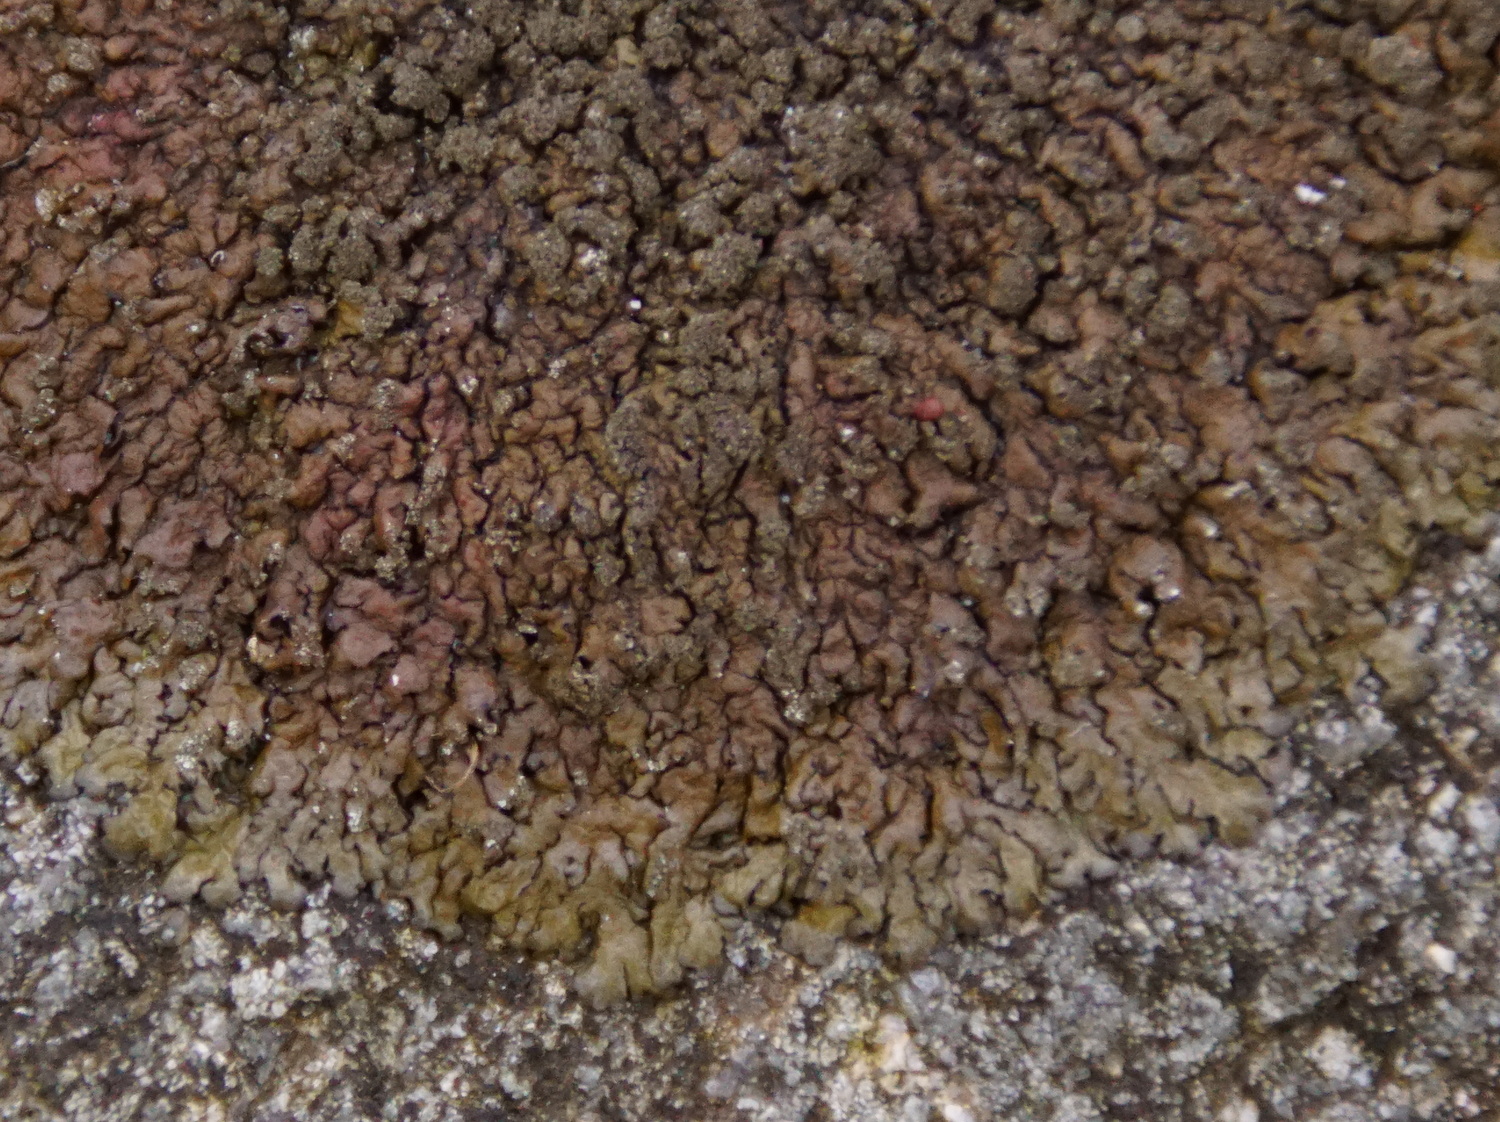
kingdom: Fungi
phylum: Ascomycota
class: Lecanoromycetes
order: Lecanorales
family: Parmeliaceae
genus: Xanthoparmelia
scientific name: Xanthoparmelia verruculifera
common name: småknoppet skållav
